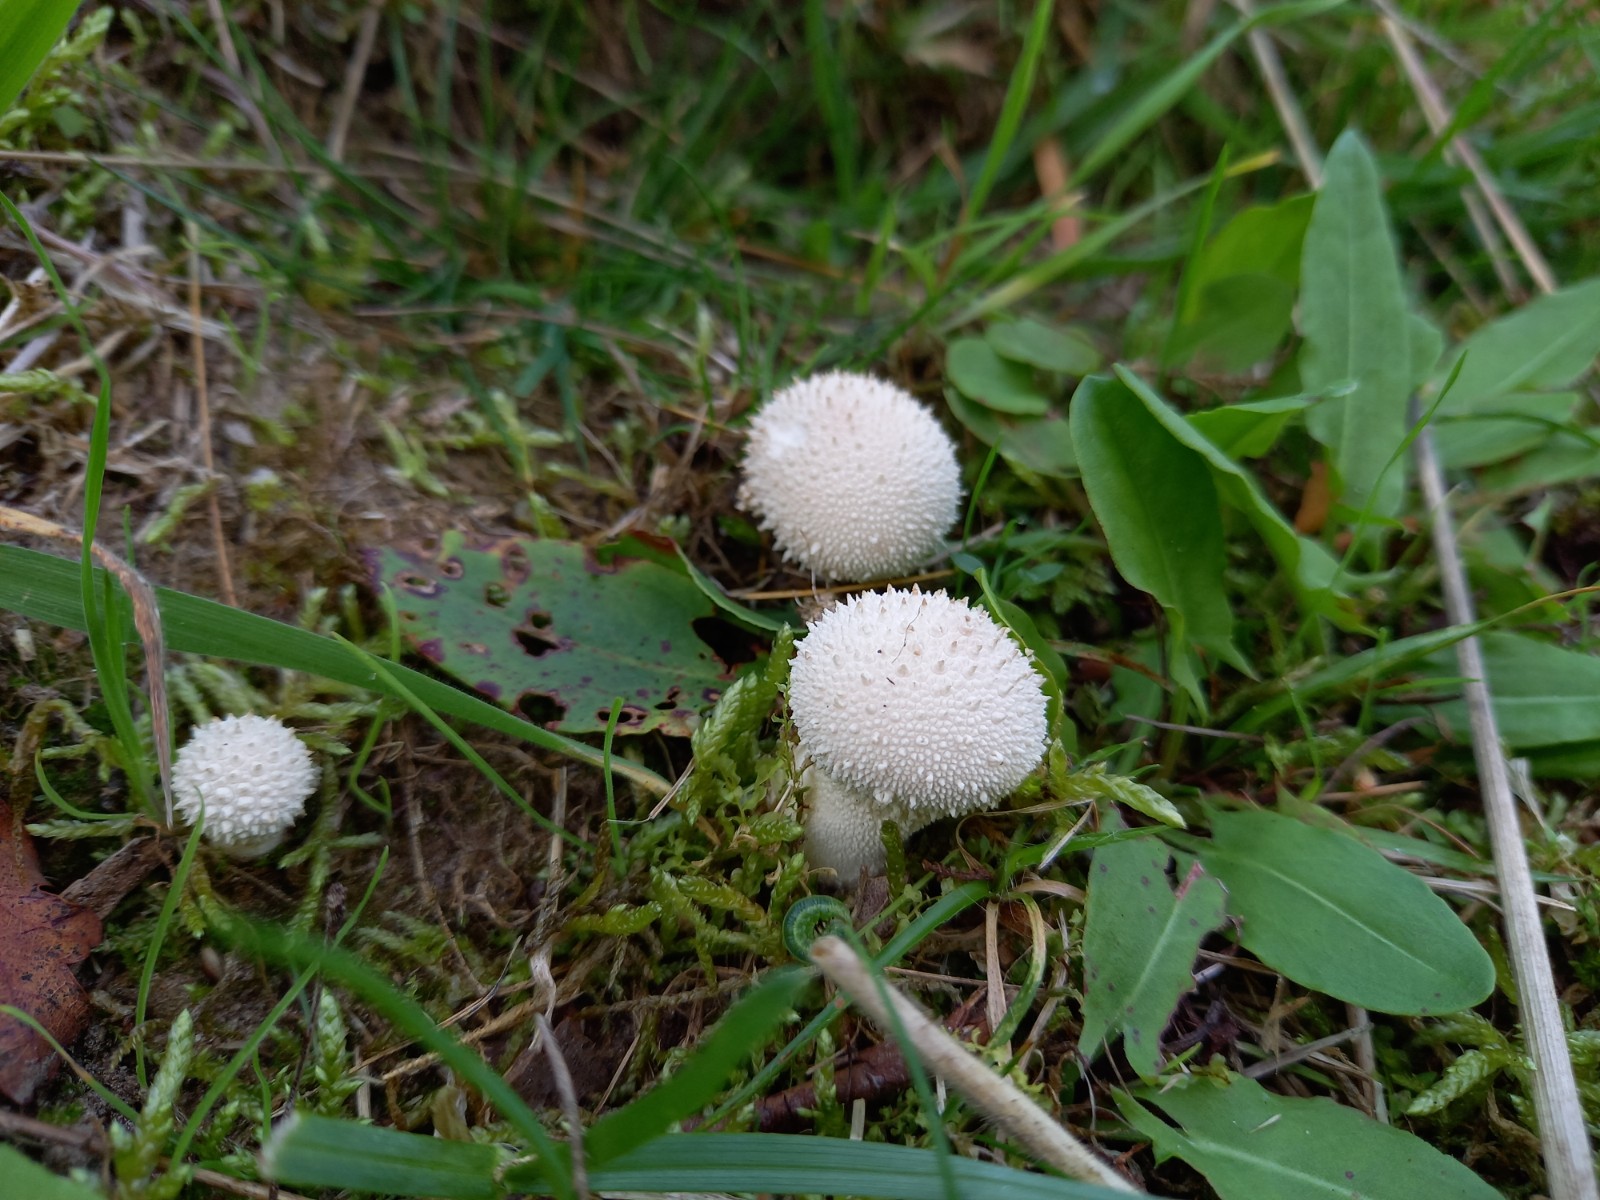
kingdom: Fungi
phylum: Basidiomycota
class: Agaricomycetes
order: Agaricales
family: Lycoperdaceae
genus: Lycoperdon
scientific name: Lycoperdon perlatum
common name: krystal-støvbold
